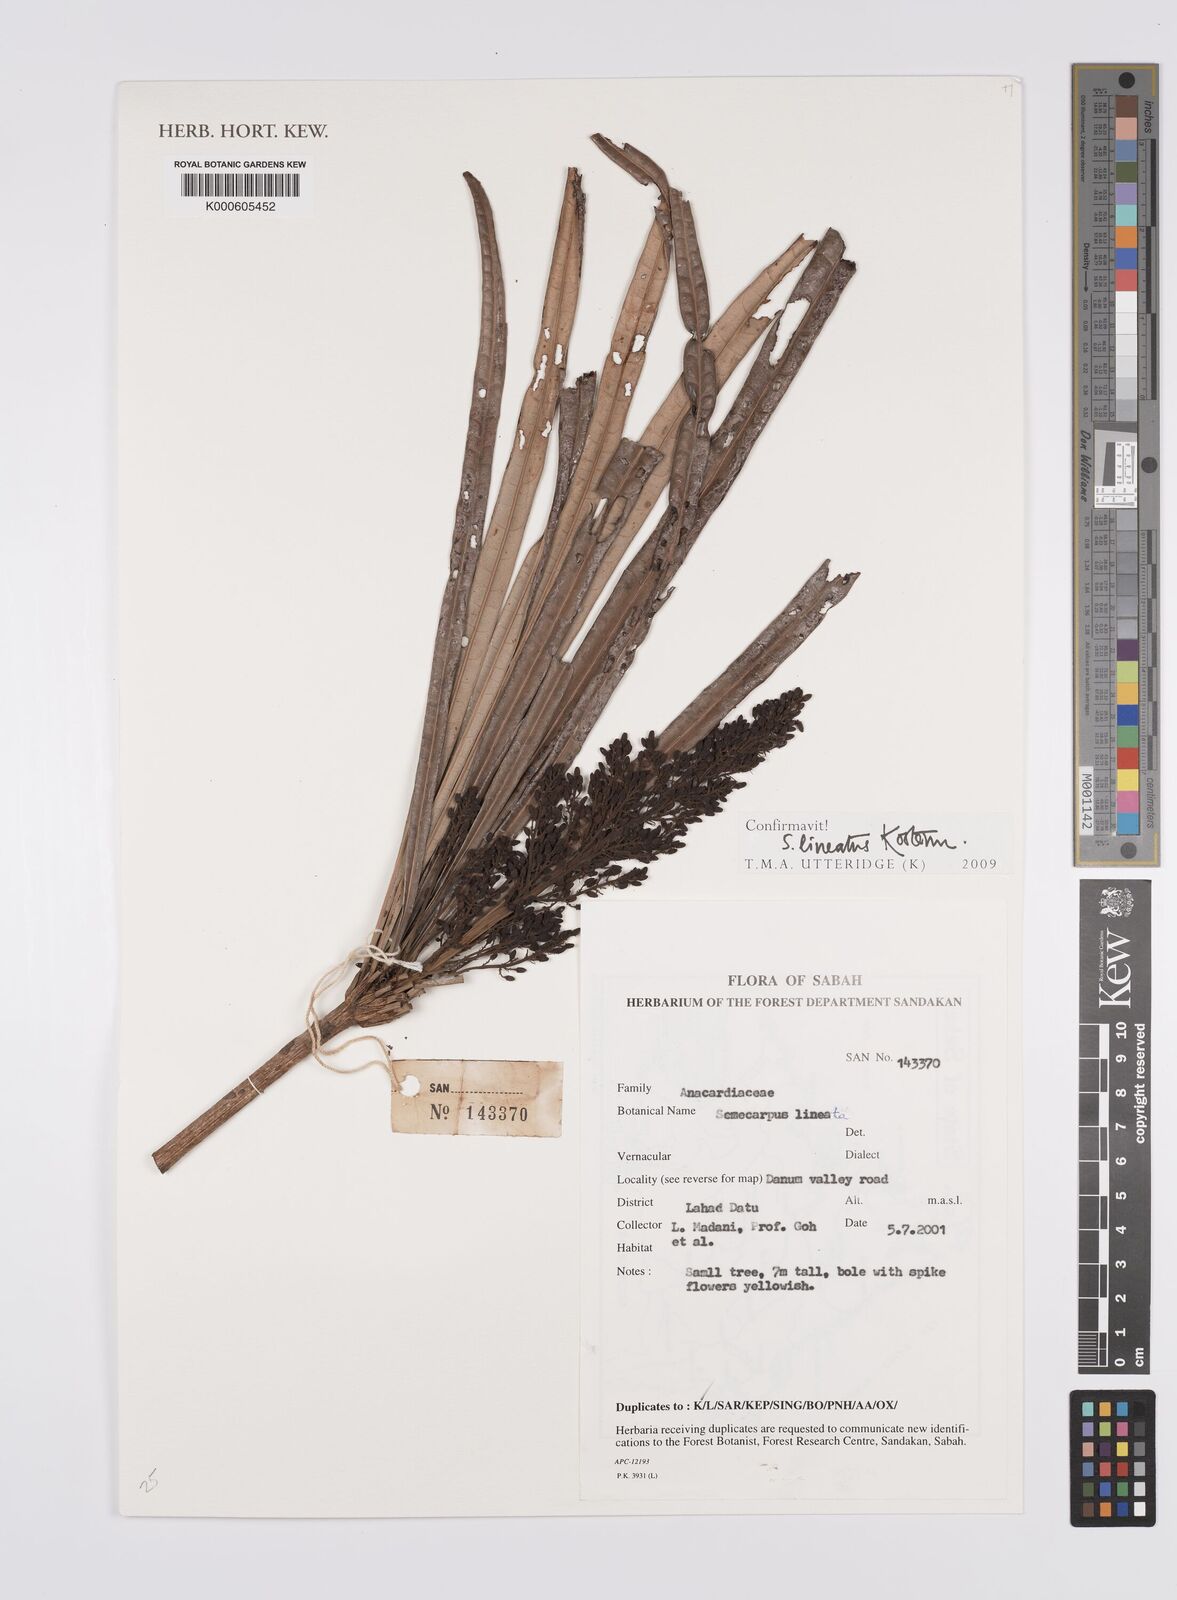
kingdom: Plantae
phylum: Tracheophyta
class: Magnoliopsida
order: Sapindales
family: Anacardiaceae
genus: Semecarpus
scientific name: Semecarpus lineatus
